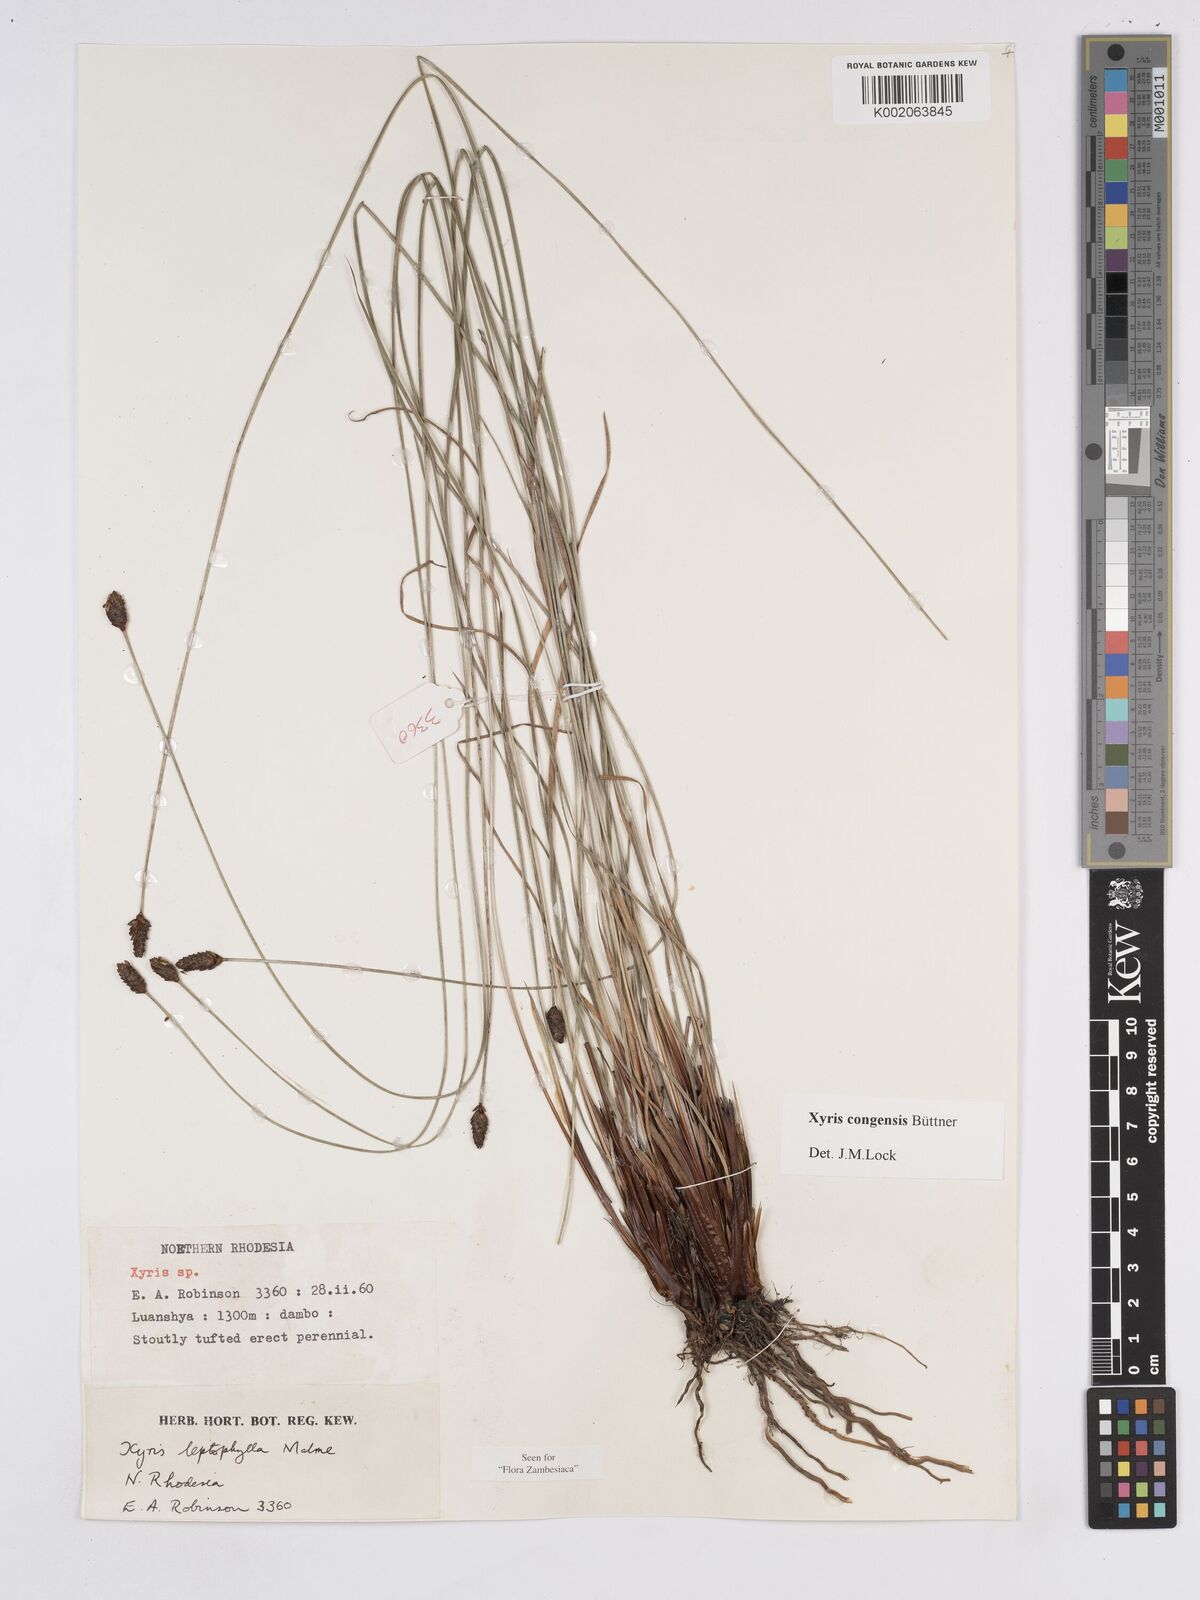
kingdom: Plantae
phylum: Tracheophyta
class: Liliopsida
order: Poales
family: Xyridaceae
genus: Xyris
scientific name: Xyris congensis
